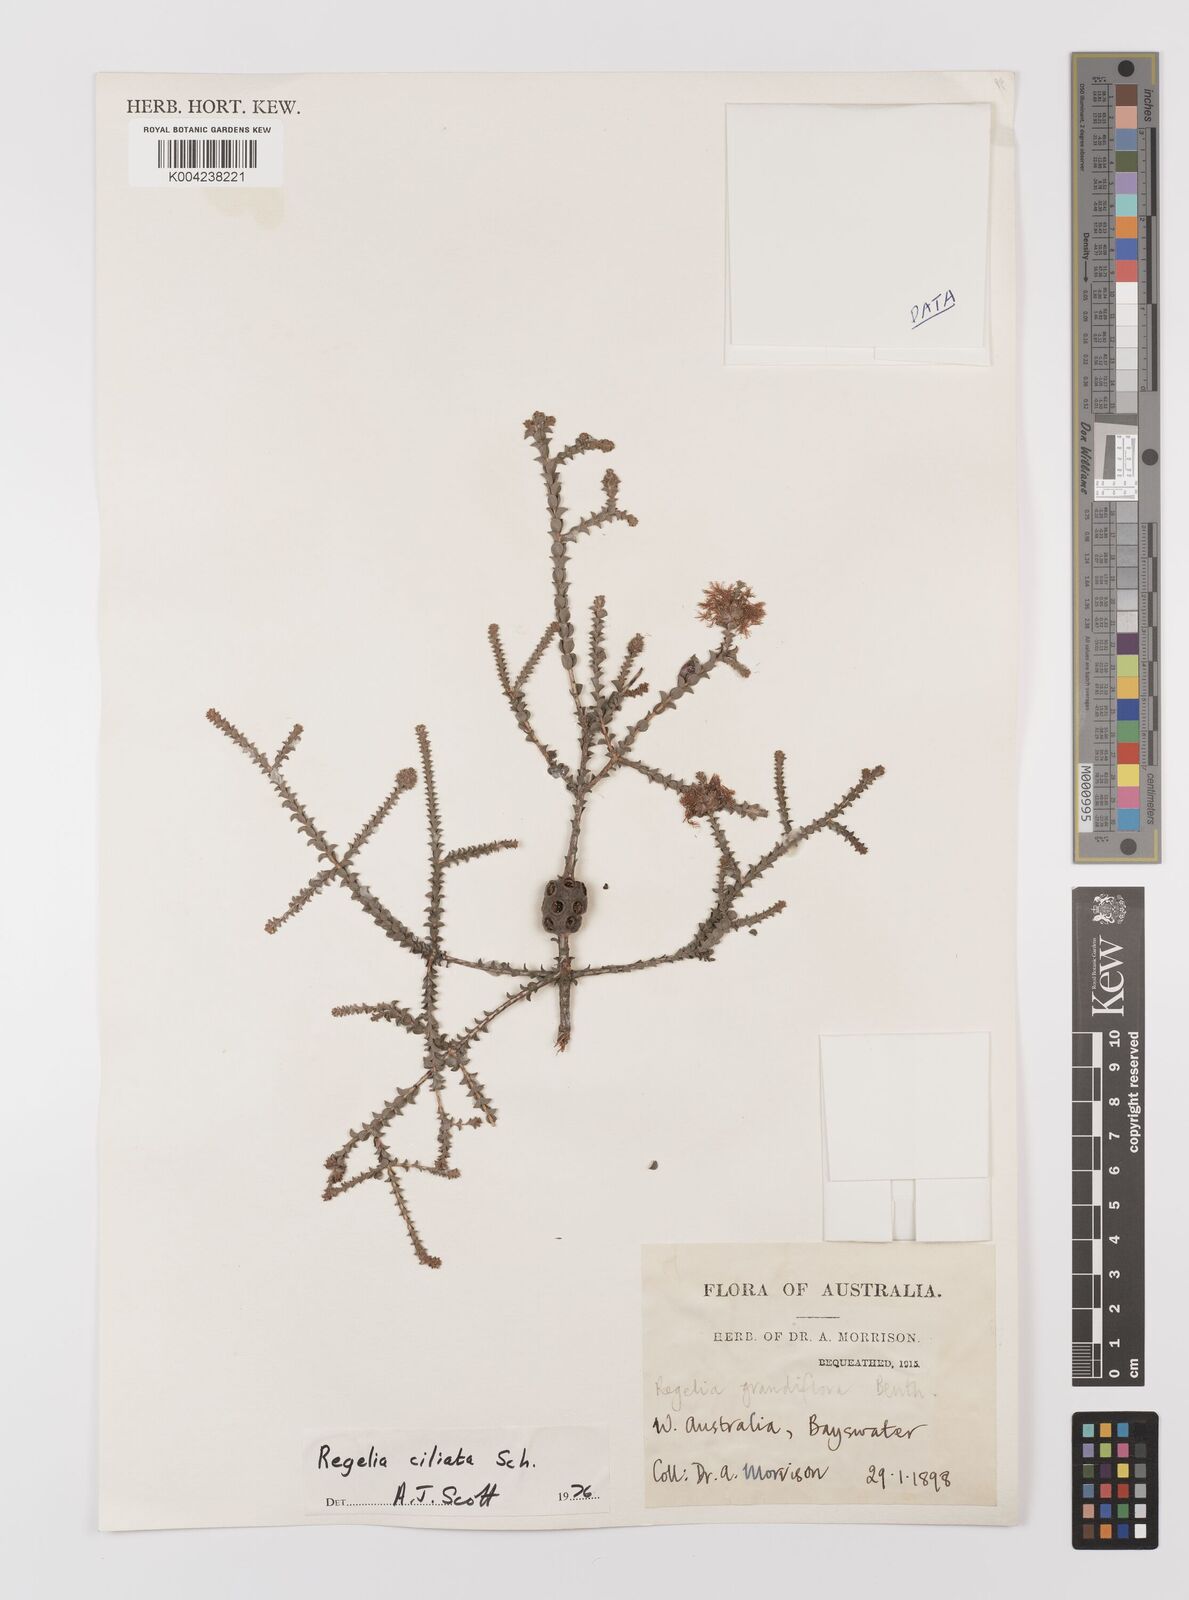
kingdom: Plantae
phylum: Tracheophyta
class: Magnoliopsida
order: Myrtales
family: Myrtaceae
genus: Melaleuca
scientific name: Melaleuca crossota
